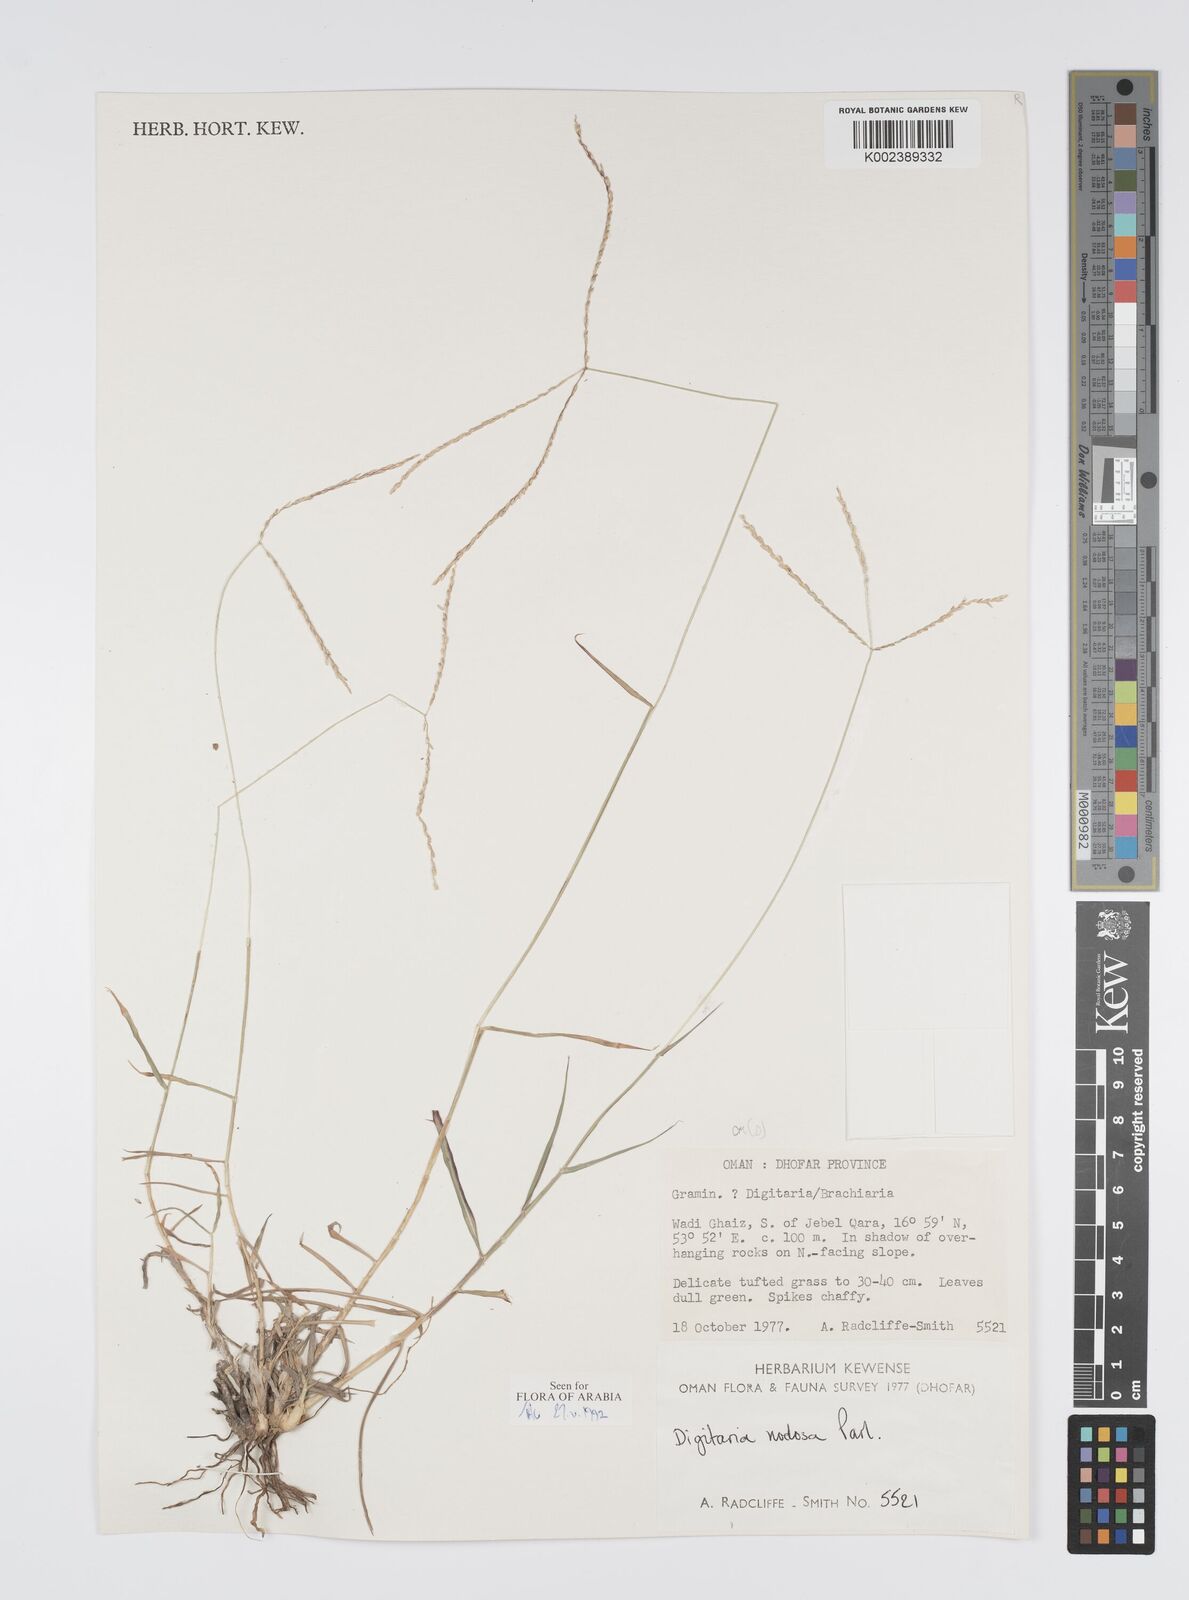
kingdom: Plantae
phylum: Tracheophyta
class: Liliopsida
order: Poales
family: Poaceae
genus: Digitaria
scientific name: Digitaria nodosa
